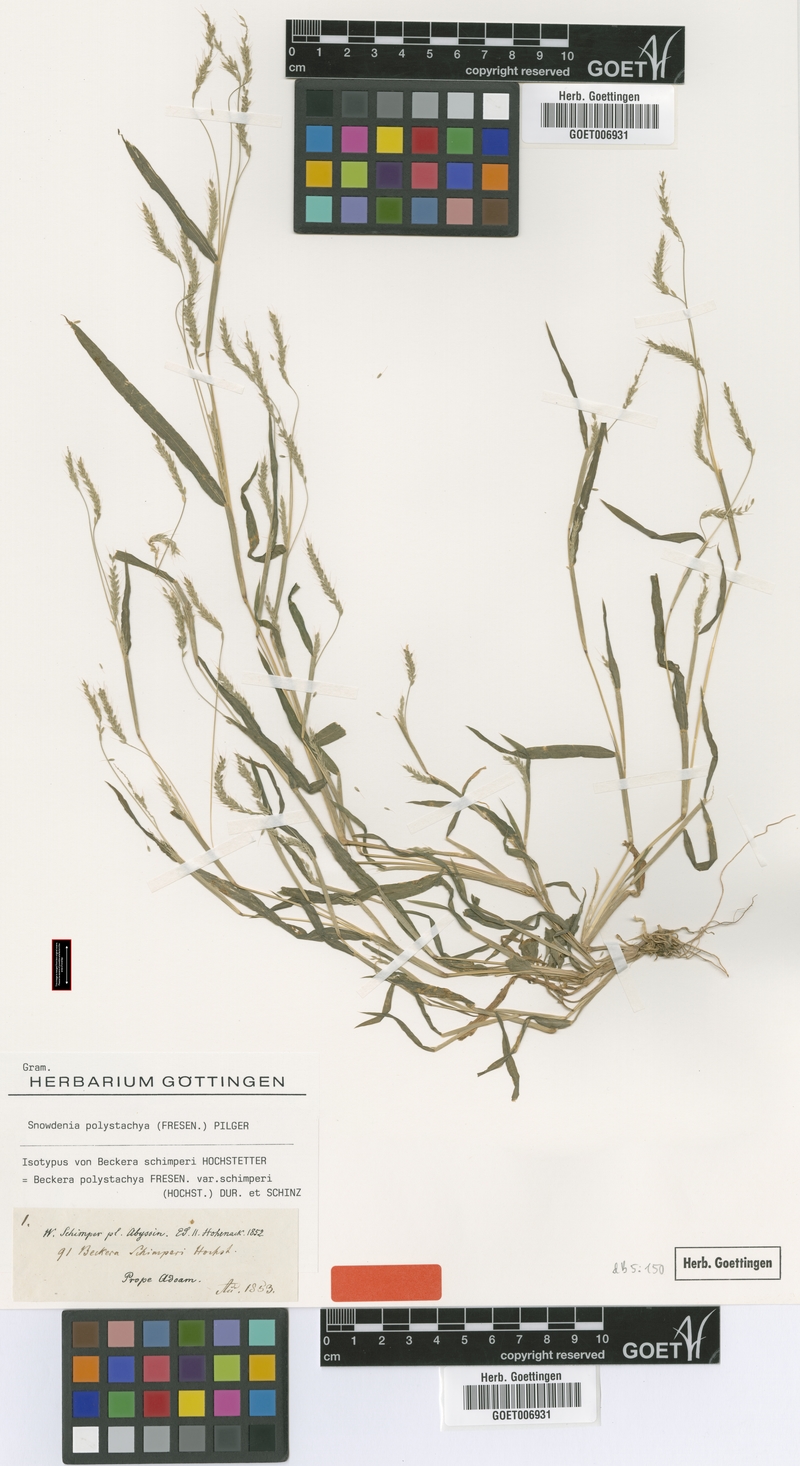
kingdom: Plantae
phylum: Tracheophyta
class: Liliopsida
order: Poales
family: Poaceae
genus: Snowdenia
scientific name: Snowdenia polystachya
